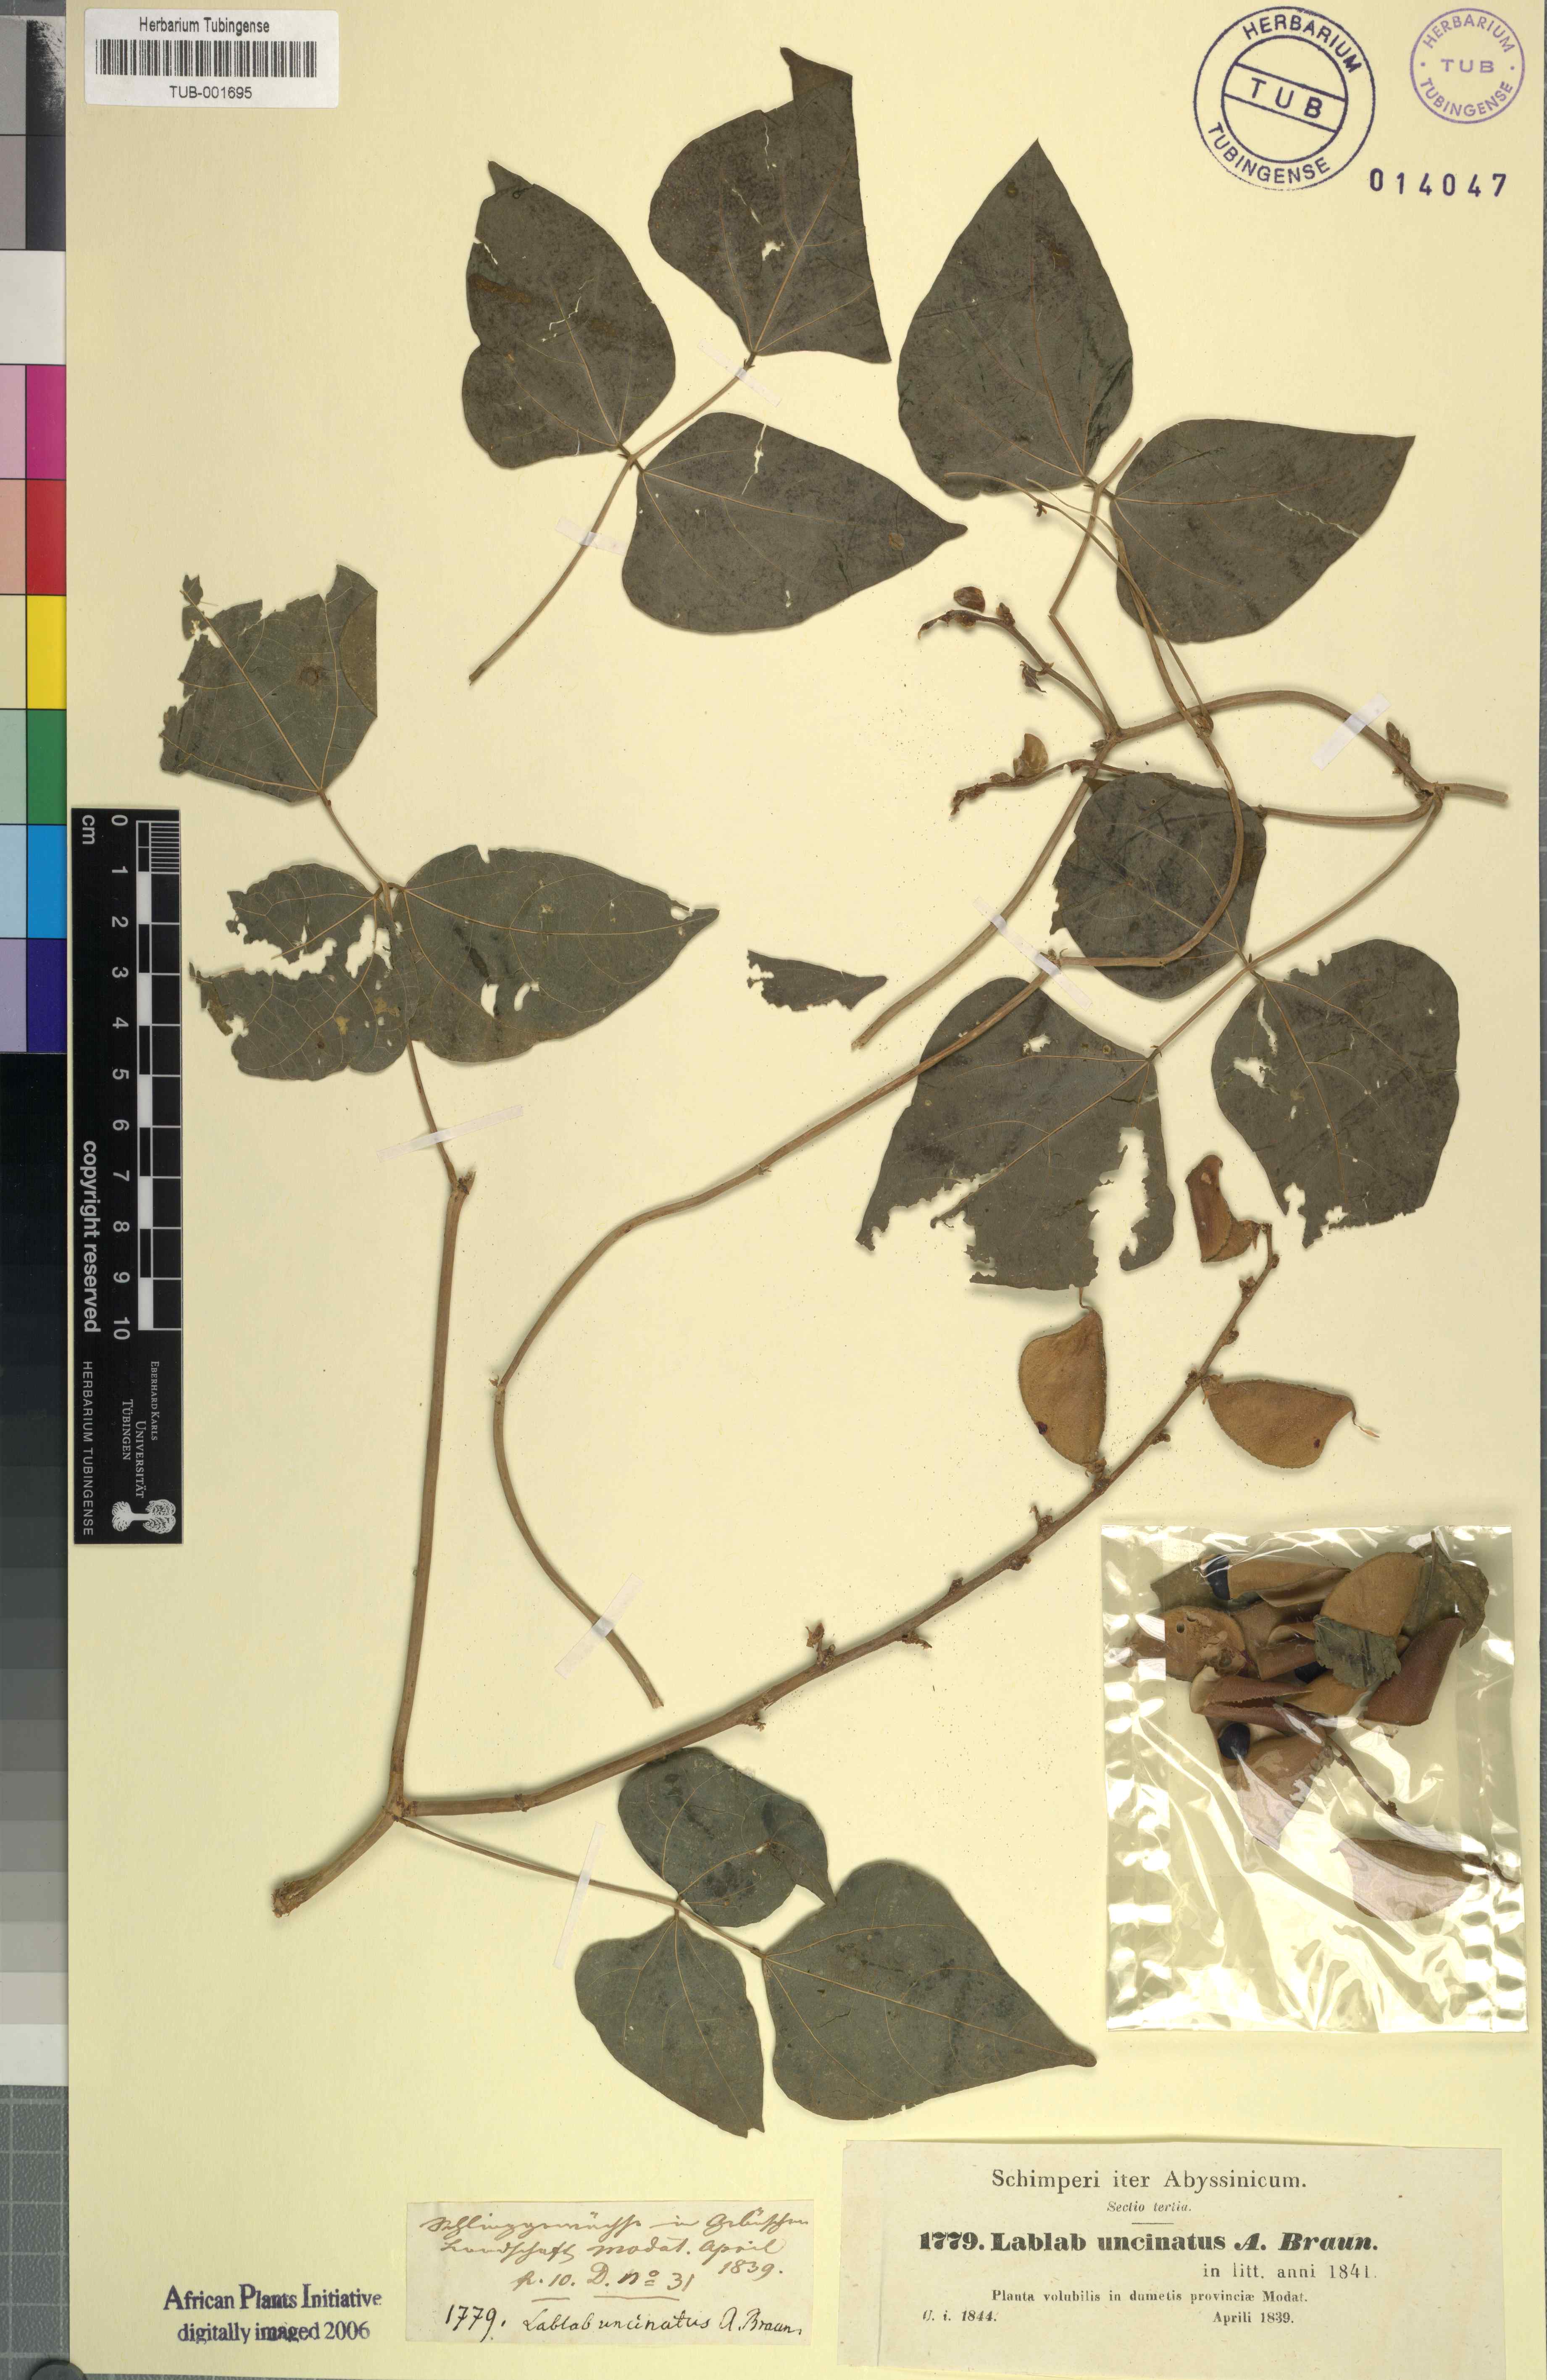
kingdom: Plantae
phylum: Tracheophyta
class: Magnoliopsida
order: Fabales
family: Fabaceae
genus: Lablab
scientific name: Lablab purpureus
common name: Lablab-bean
